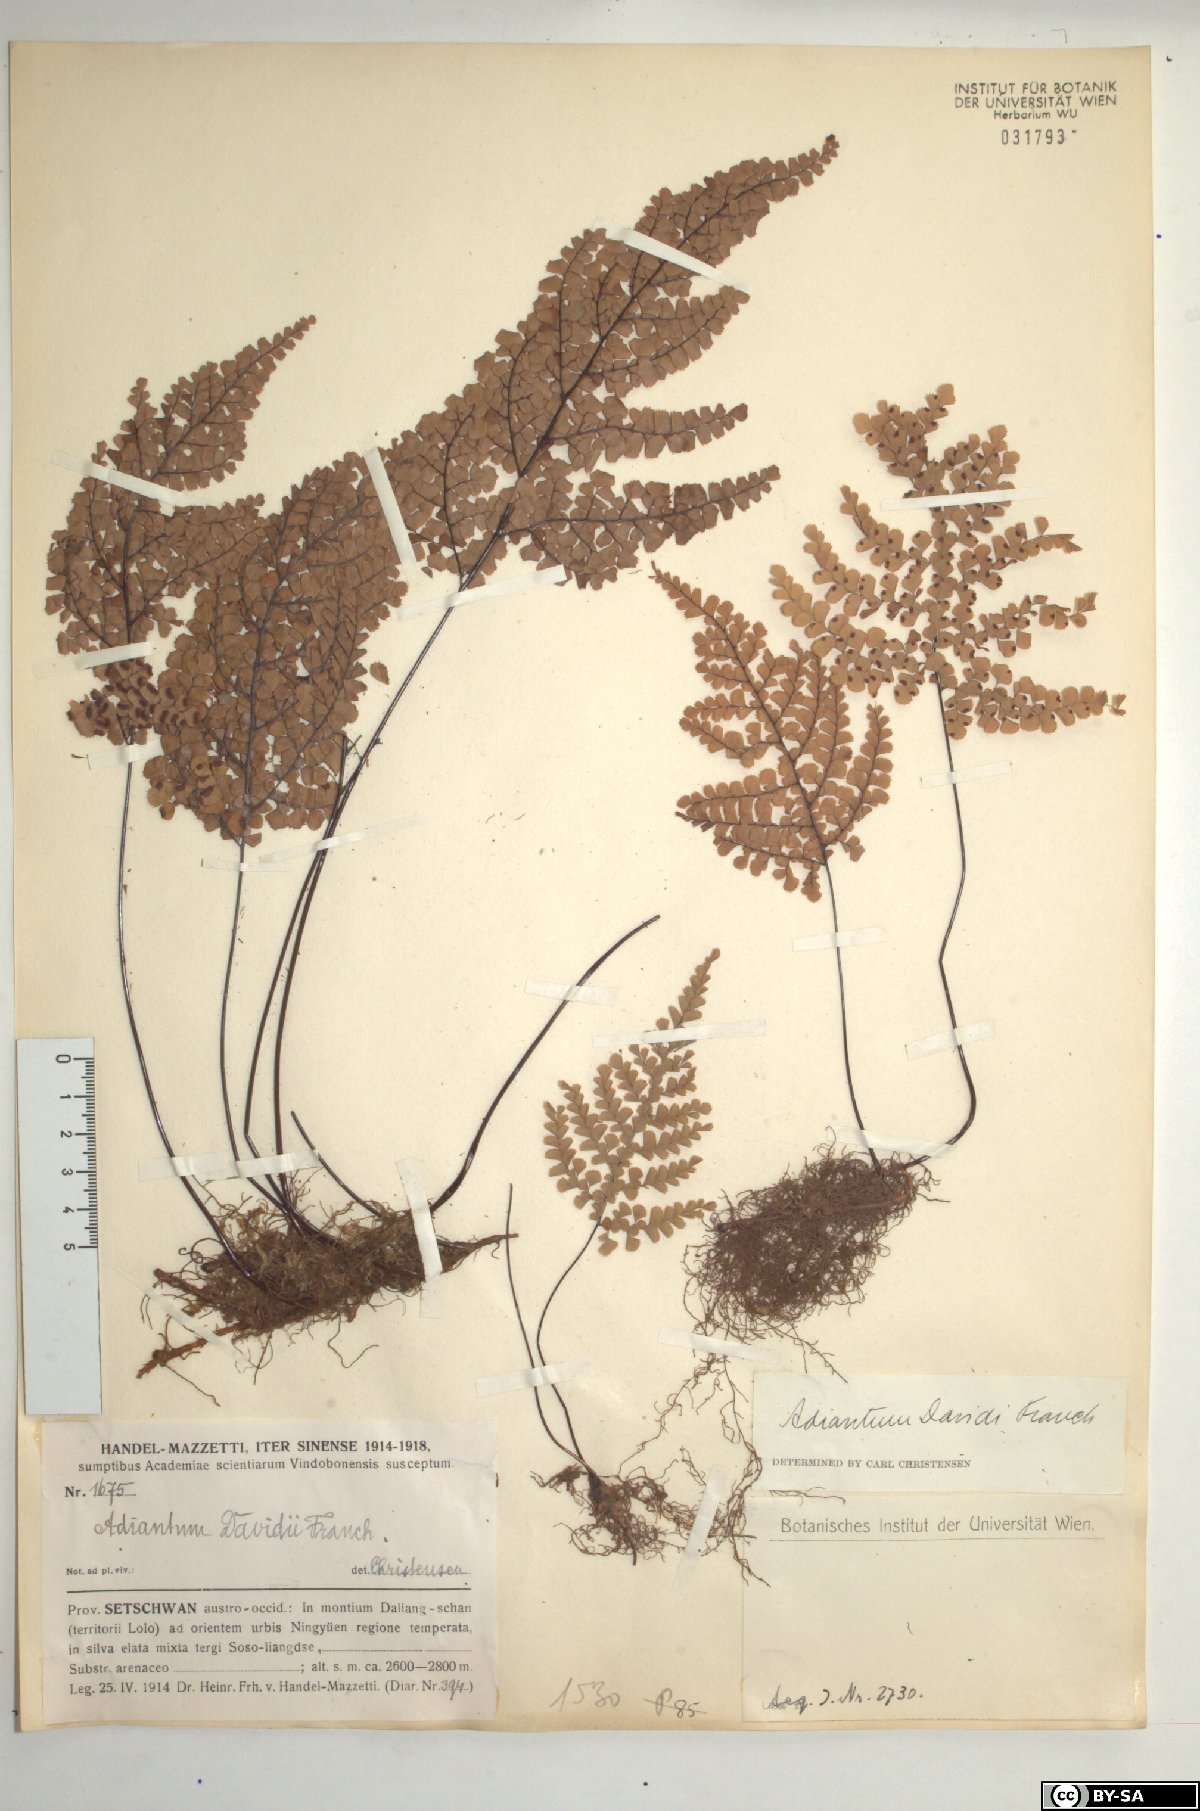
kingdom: Plantae
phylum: Tracheophyta
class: Polypodiopsida
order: Polypodiales
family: Pteridaceae
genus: Adiantum
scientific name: Adiantum davidii
